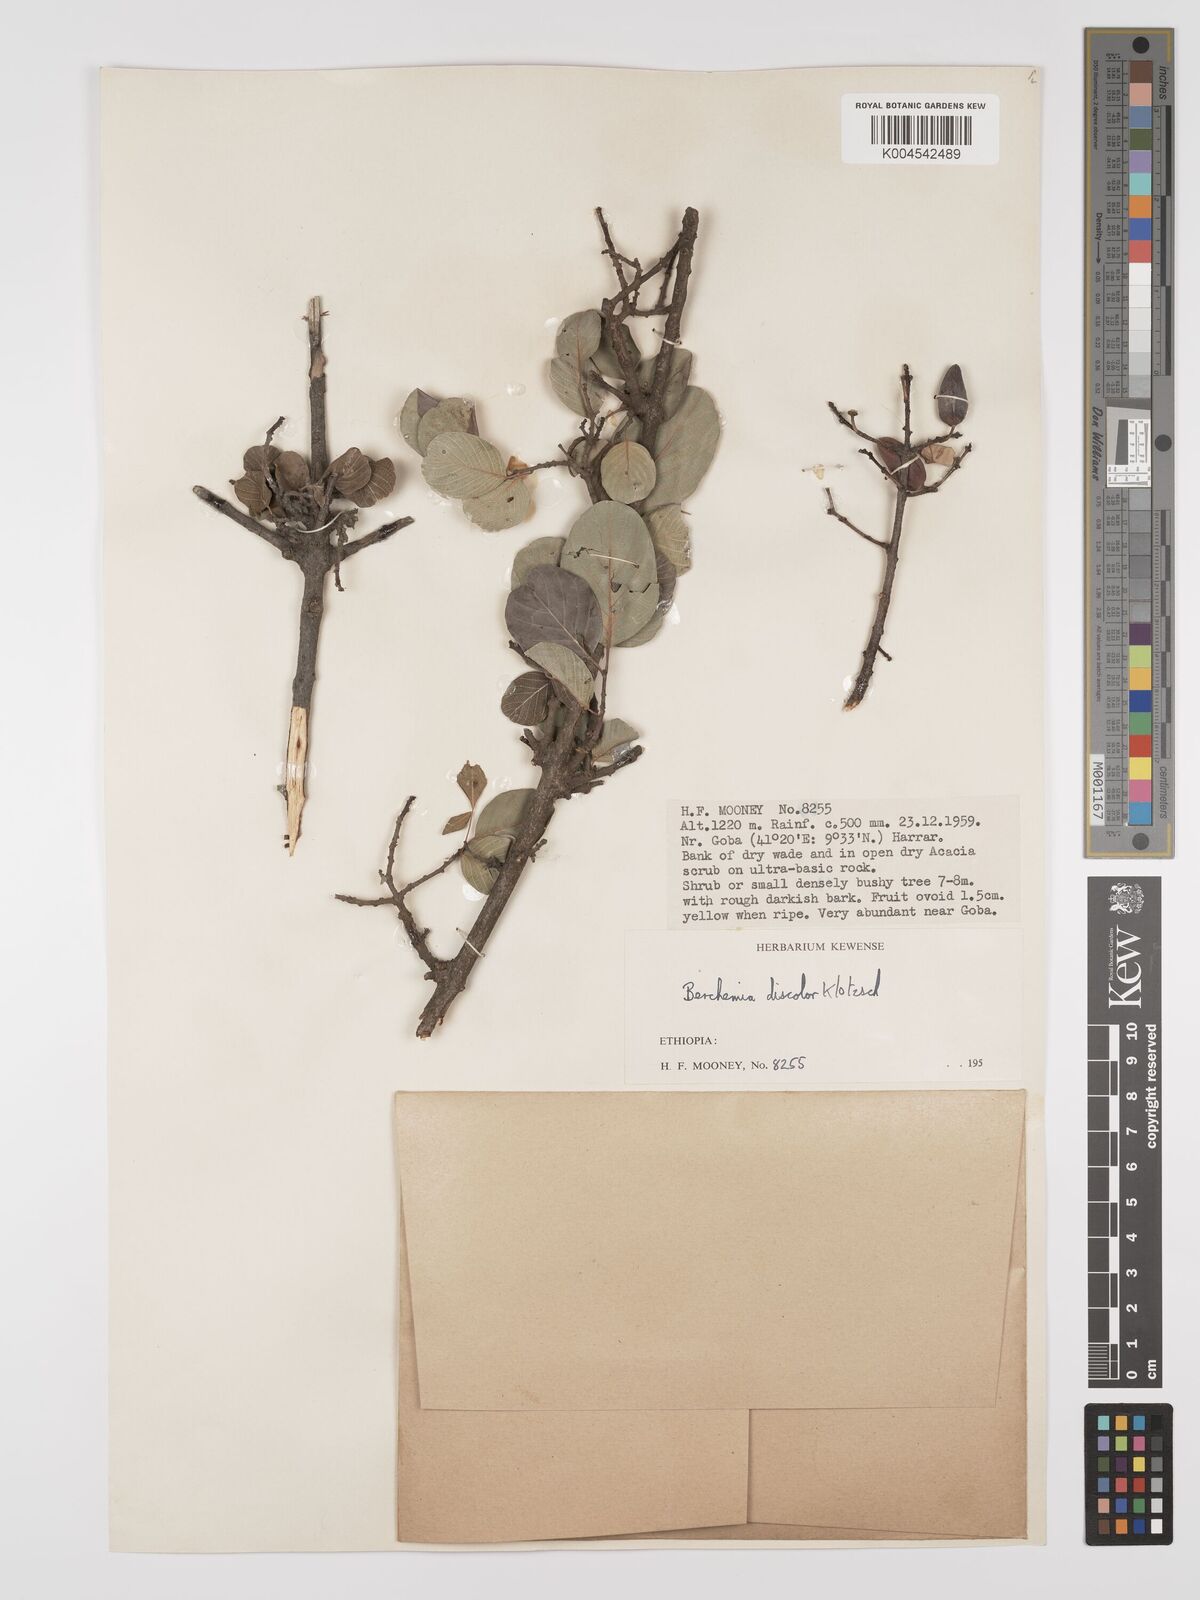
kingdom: Plantae
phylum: Tracheophyta
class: Magnoliopsida
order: Rosales
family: Rhamnaceae
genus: Phyllogeiton
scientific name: Phyllogeiton discolor
